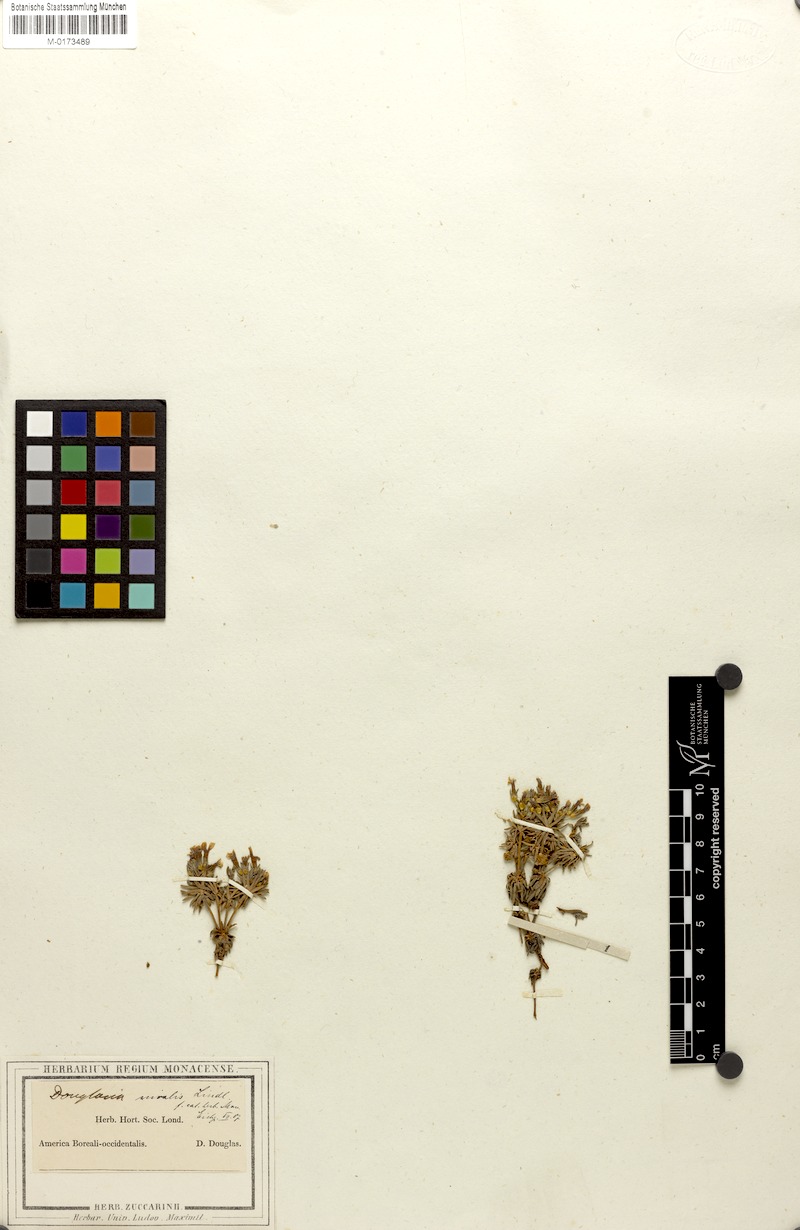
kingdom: Plantae
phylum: Tracheophyta
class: Magnoliopsida
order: Ericales
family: Primulaceae
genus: Androsace
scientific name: Androsace nivalis
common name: Snow dwarf-primrose
